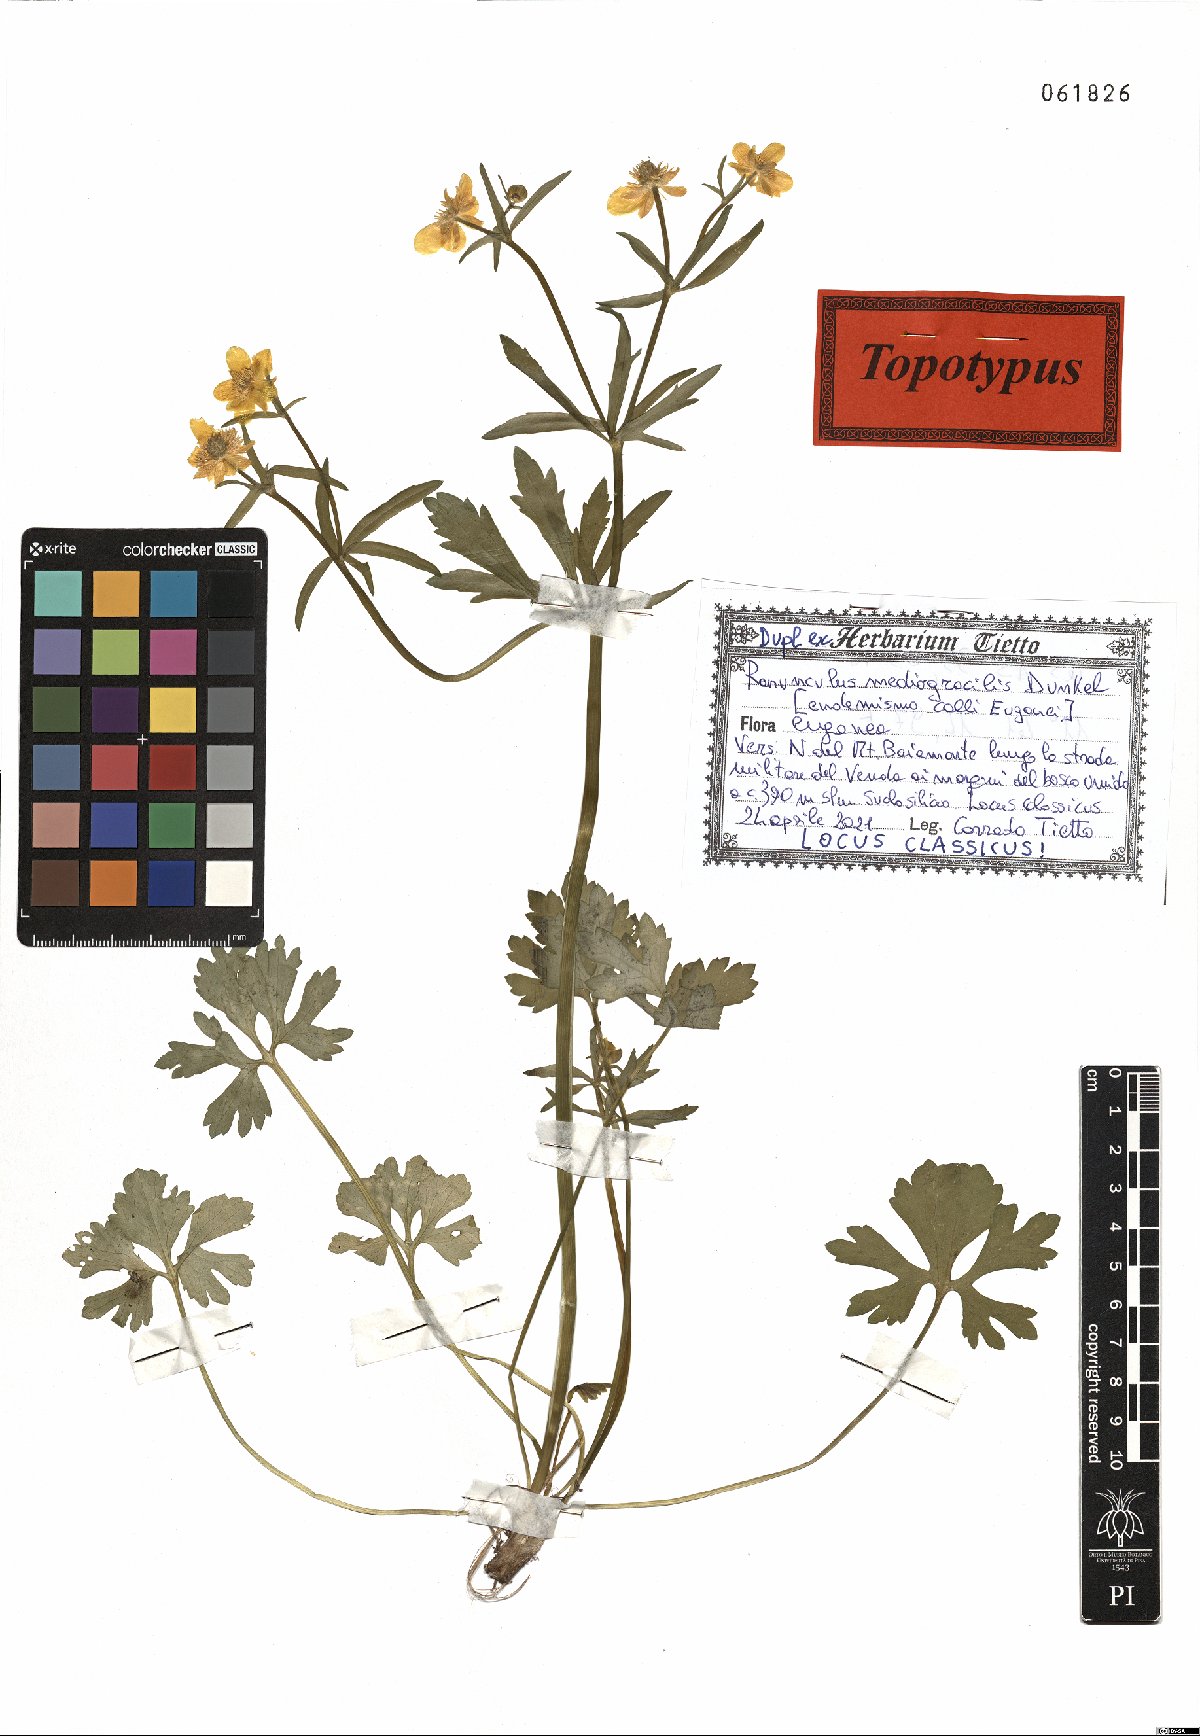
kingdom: Plantae
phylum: Tracheophyta
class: Magnoliopsida
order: Ranunculales
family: Ranunculaceae
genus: Ranunculus
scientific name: Ranunculus mediogracilis
